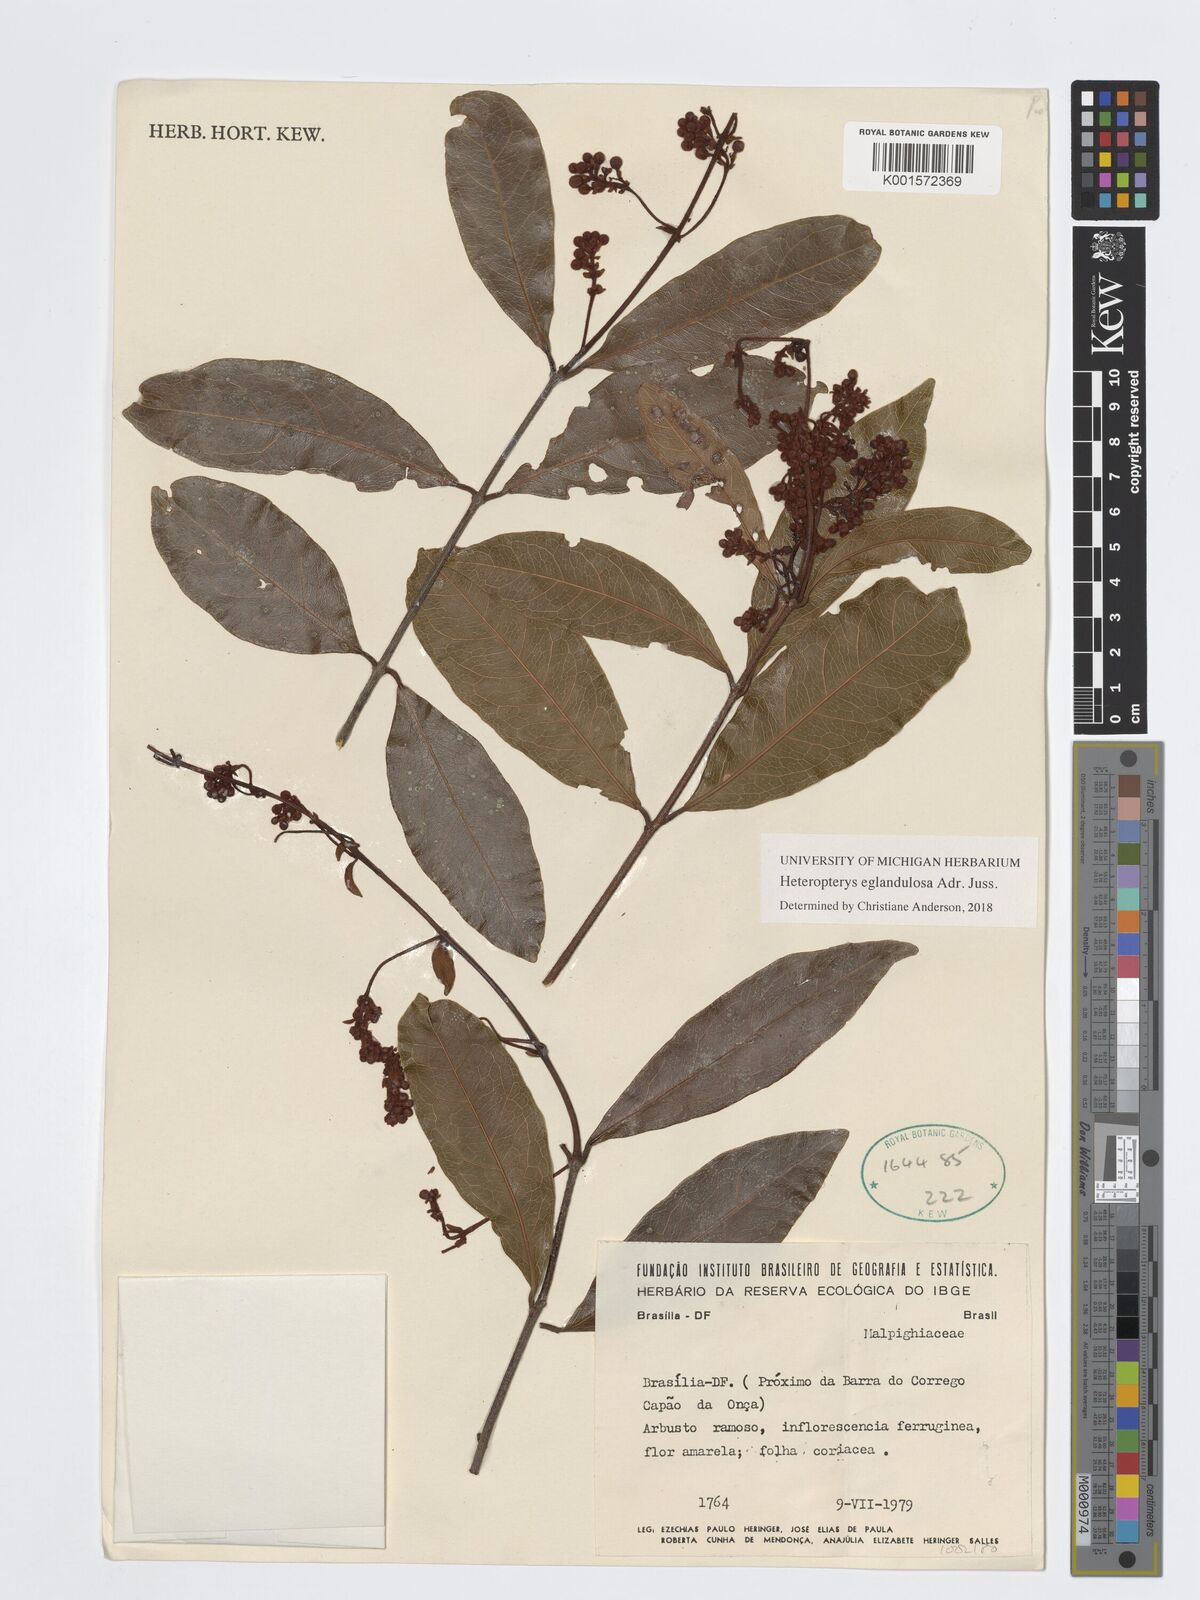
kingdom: Plantae
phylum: Tracheophyta
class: Magnoliopsida
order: Malpighiales
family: Malpighiaceae
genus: Heteropterys
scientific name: Heteropterys eglandulosa
